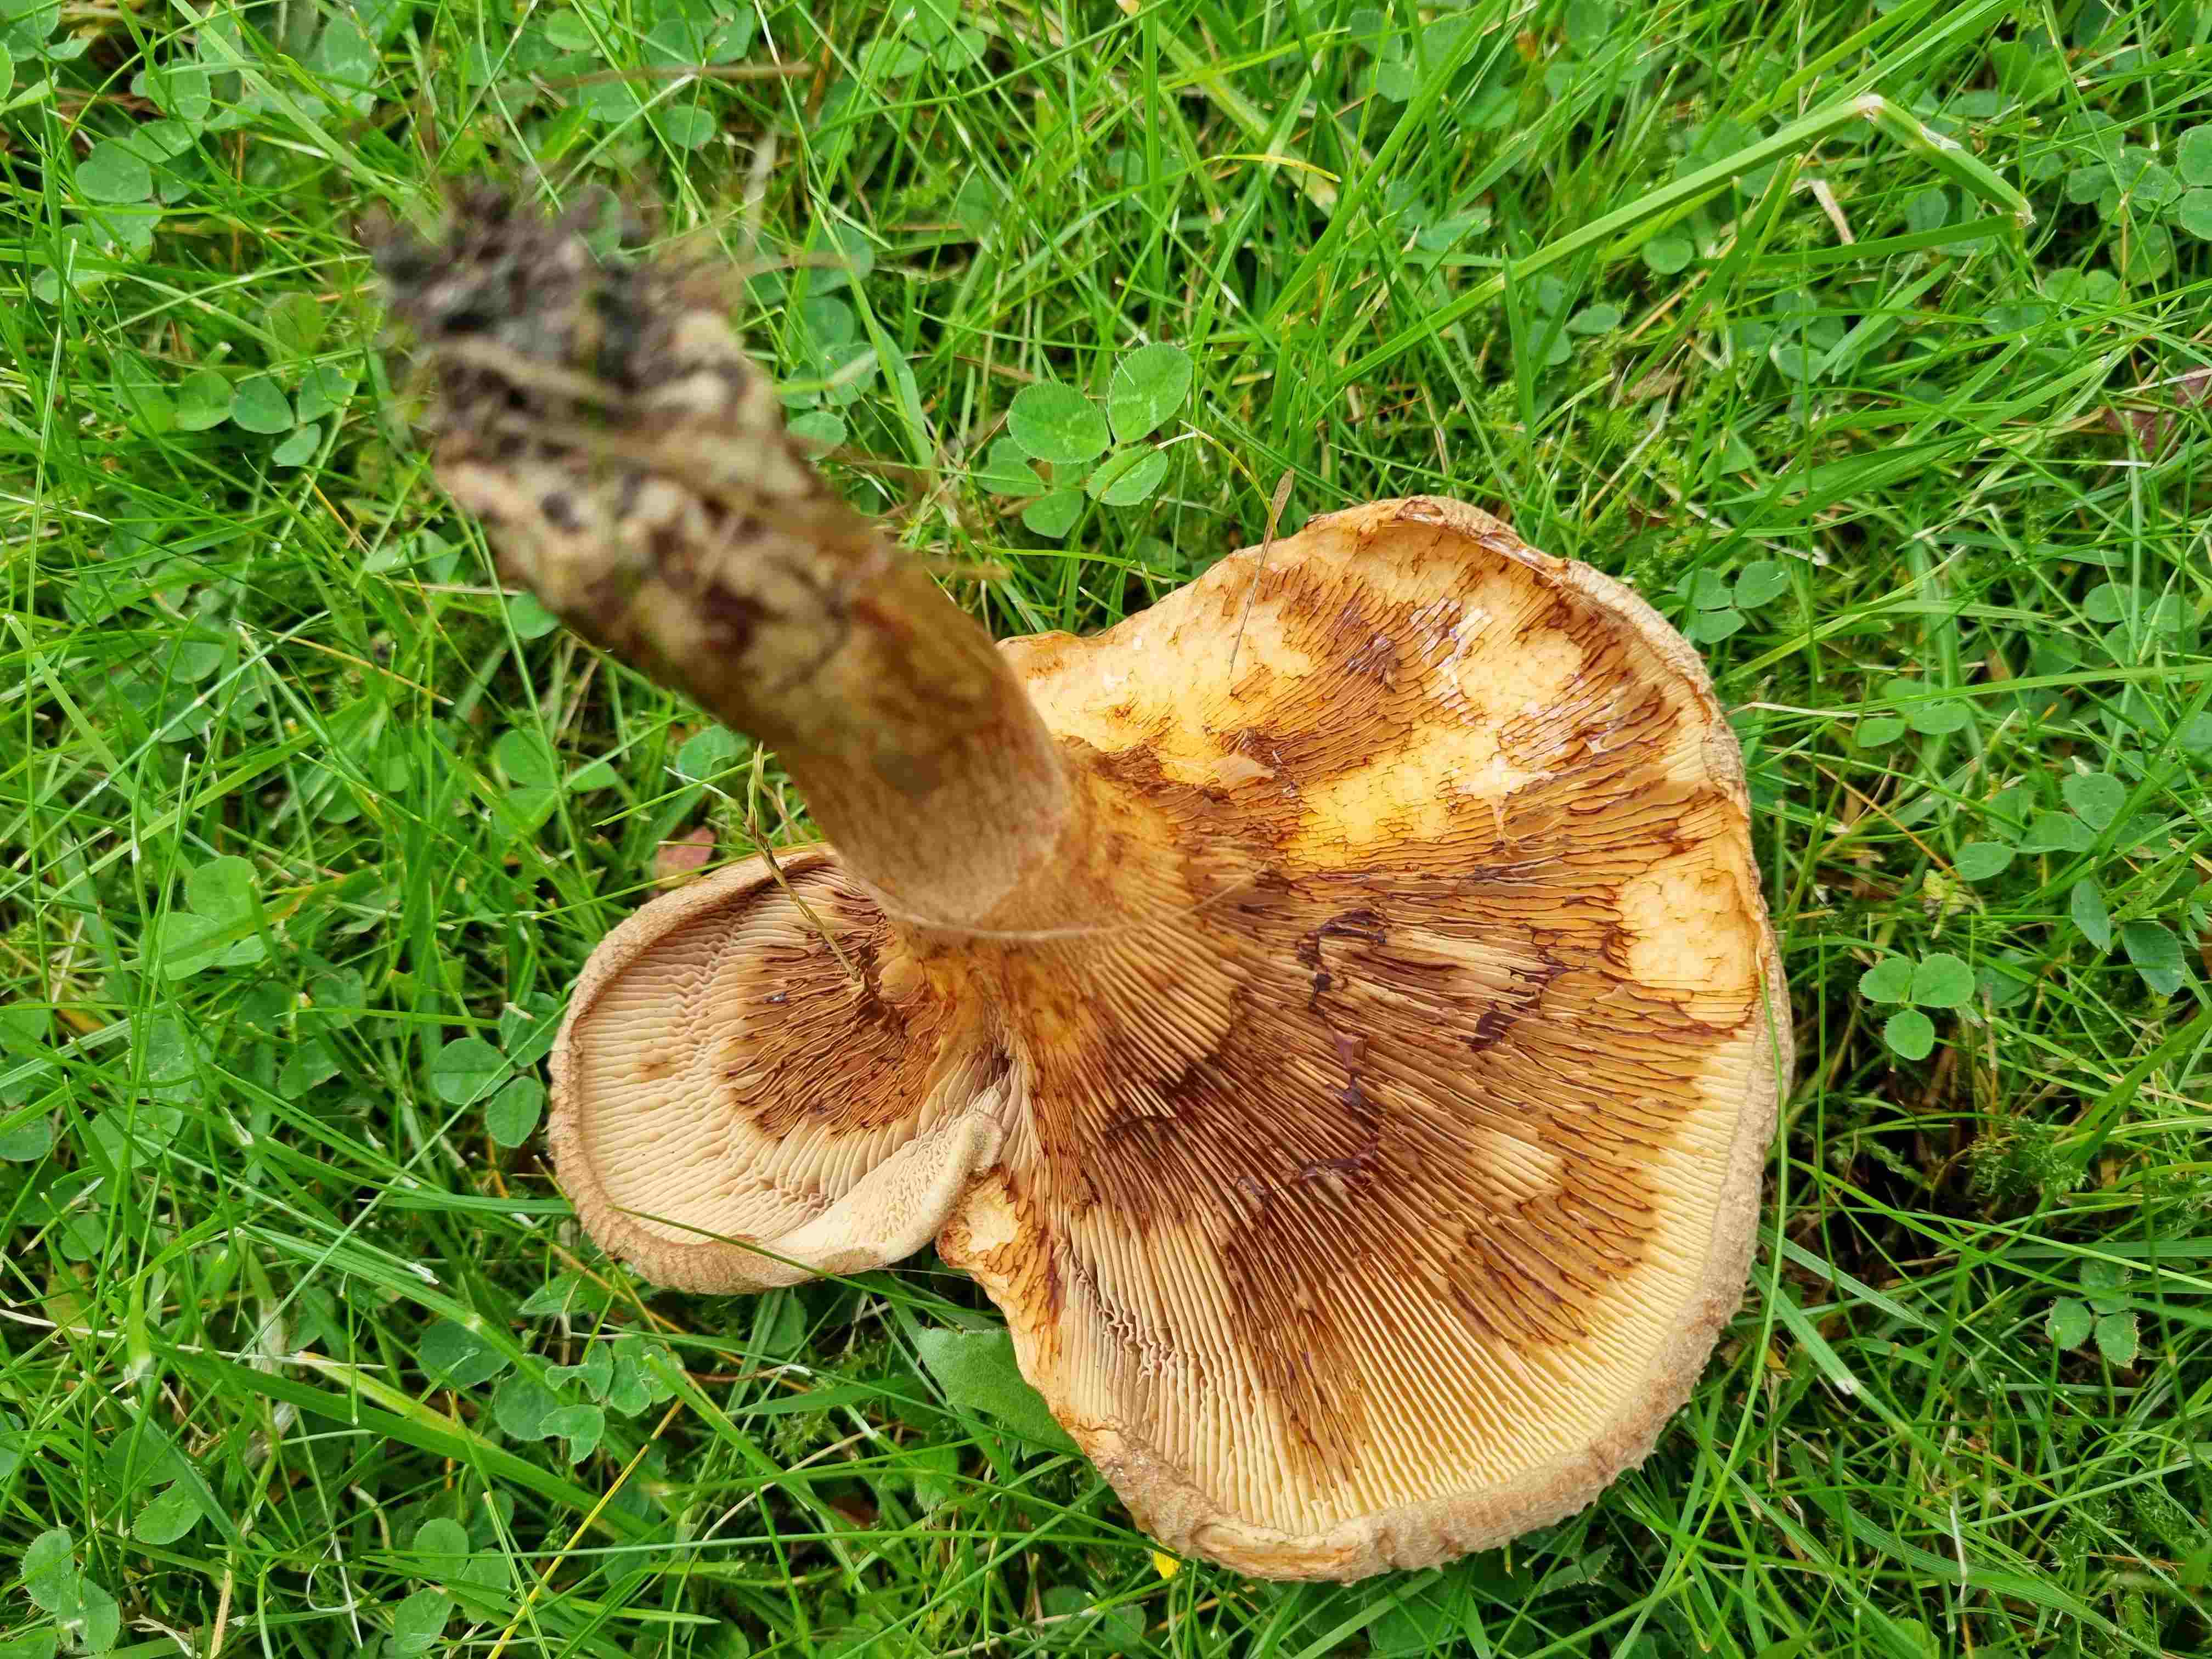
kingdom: Fungi
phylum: Basidiomycota
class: Agaricomycetes
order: Boletales
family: Paxillaceae
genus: Paxillus
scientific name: Paxillus
